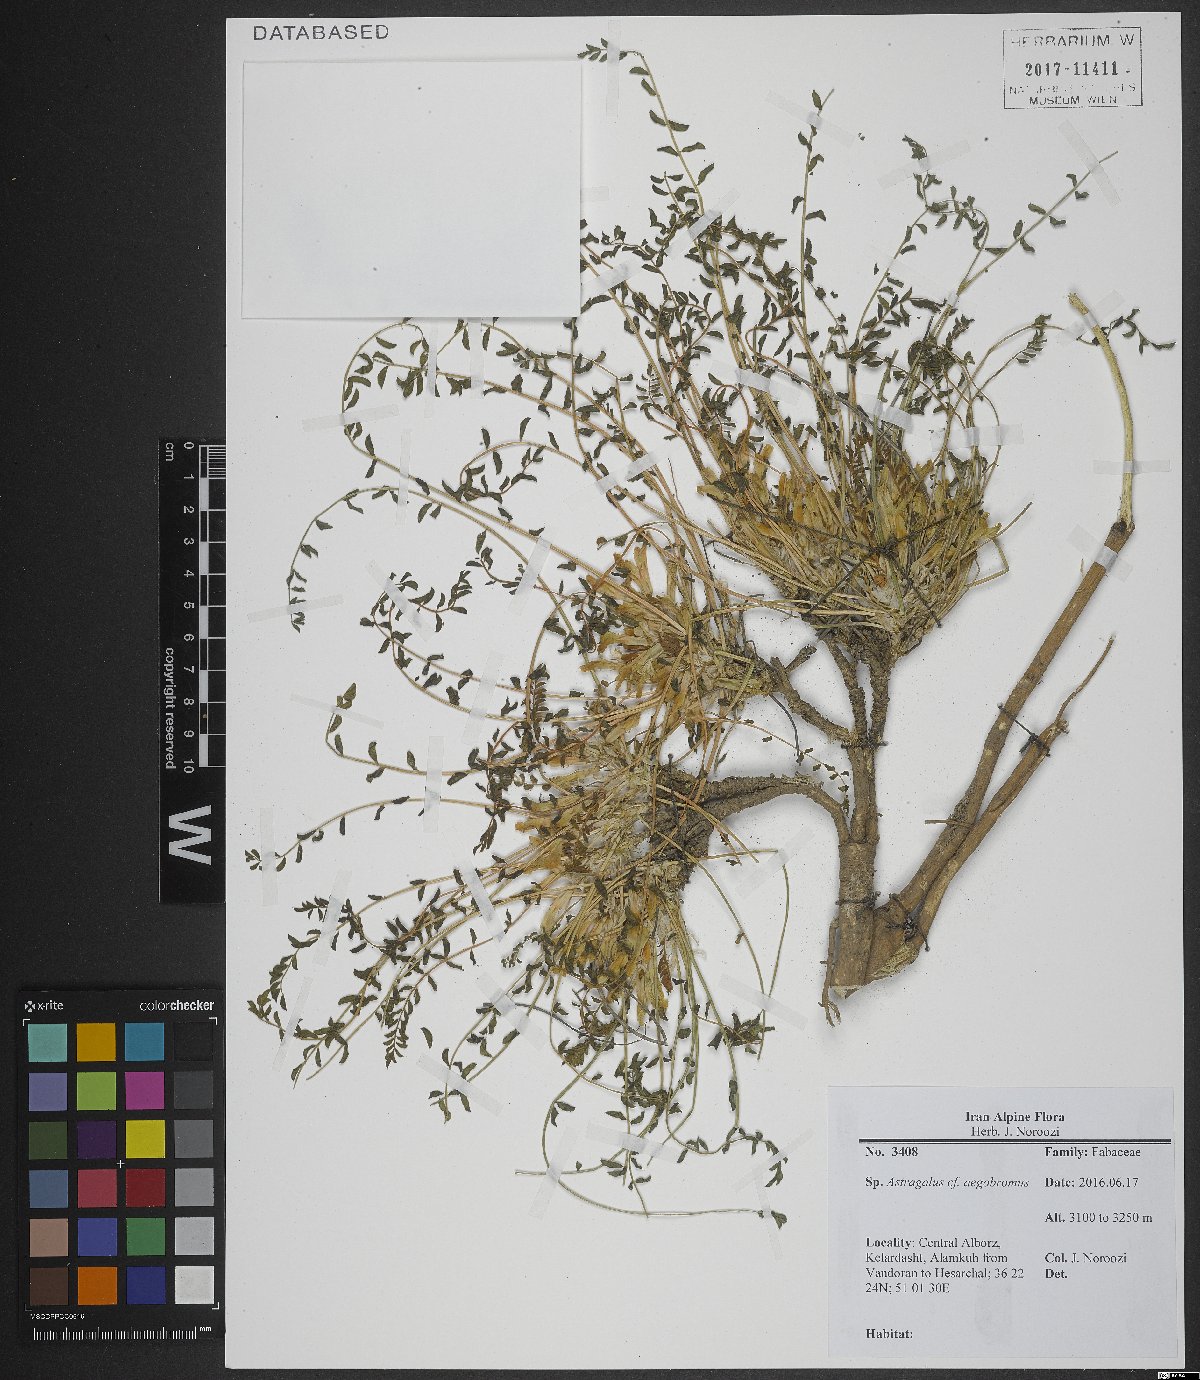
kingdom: Plantae
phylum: Tracheophyta
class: Magnoliopsida
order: Fabales
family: Fabaceae
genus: Astragalus
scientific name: Astragalus aegobromus
